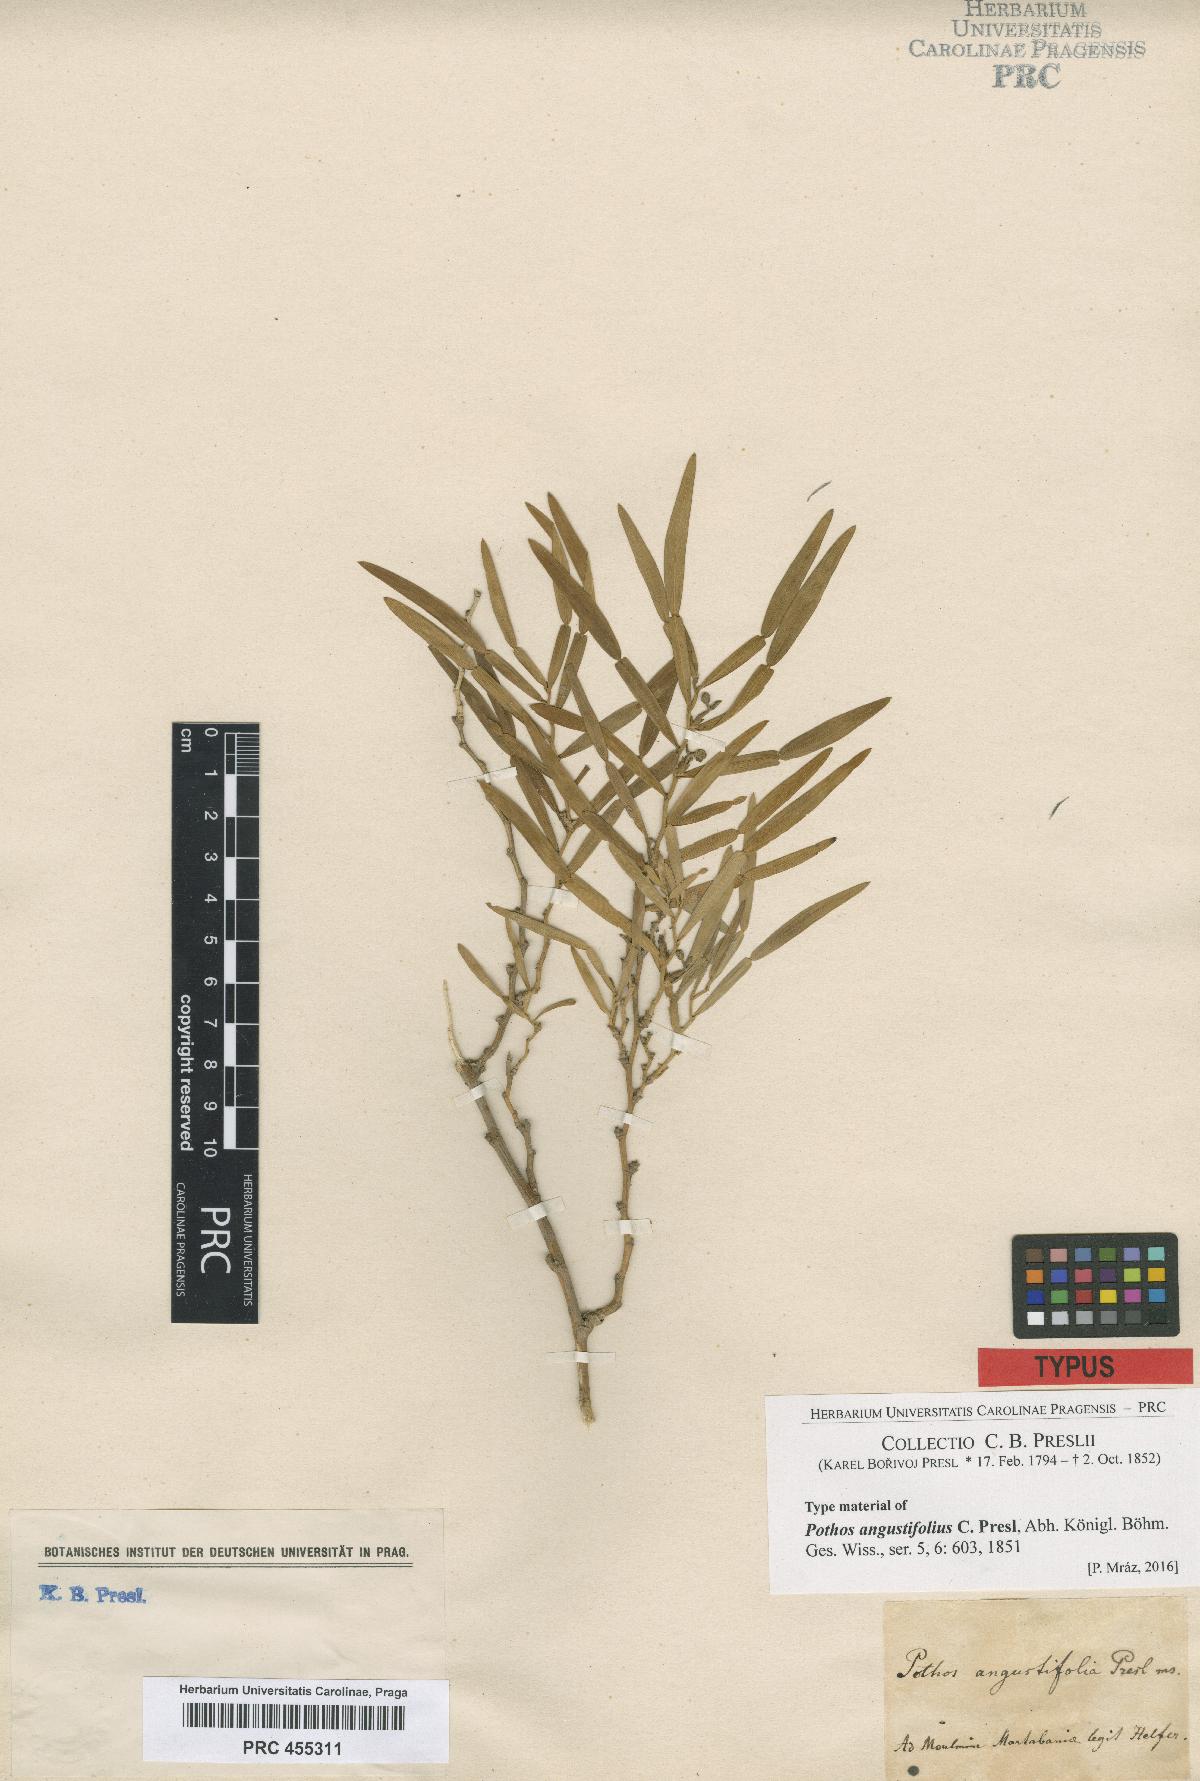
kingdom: Plantae
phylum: Tracheophyta
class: Liliopsida
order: Alismatales
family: Araceae
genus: Pothos
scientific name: Pothos scandens
